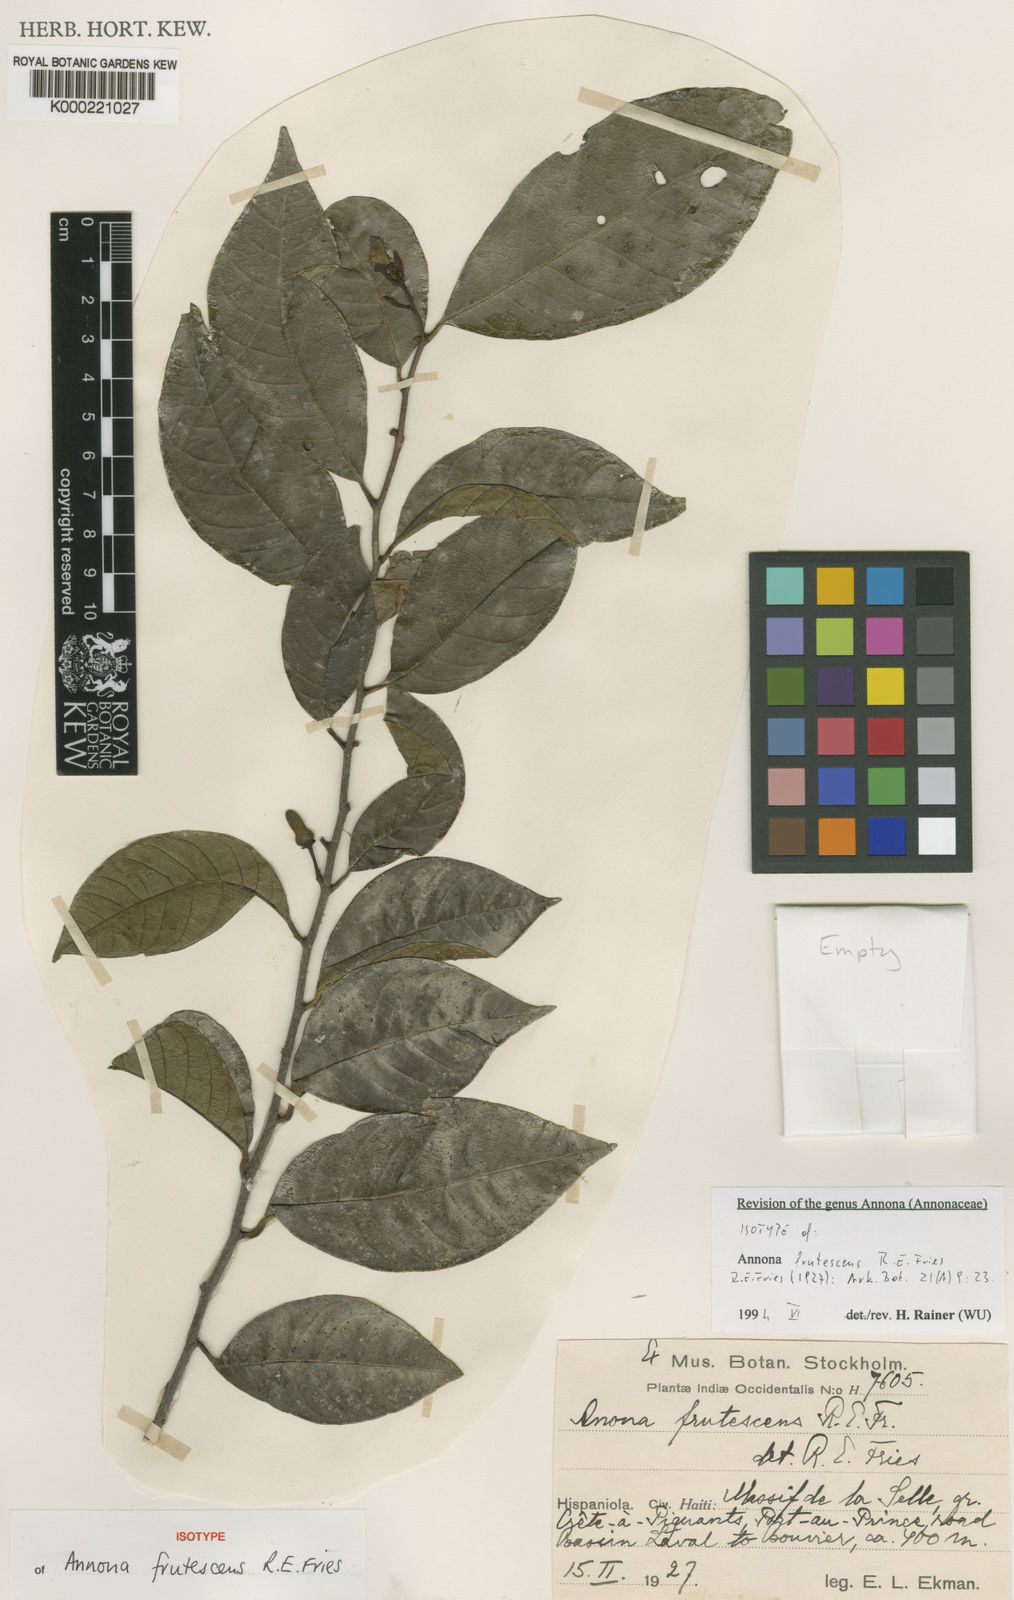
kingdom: Plantae
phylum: Tracheophyta
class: Magnoliopsida
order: Magnoliales
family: Annonaceae
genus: Annona
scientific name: Annona frutescens
